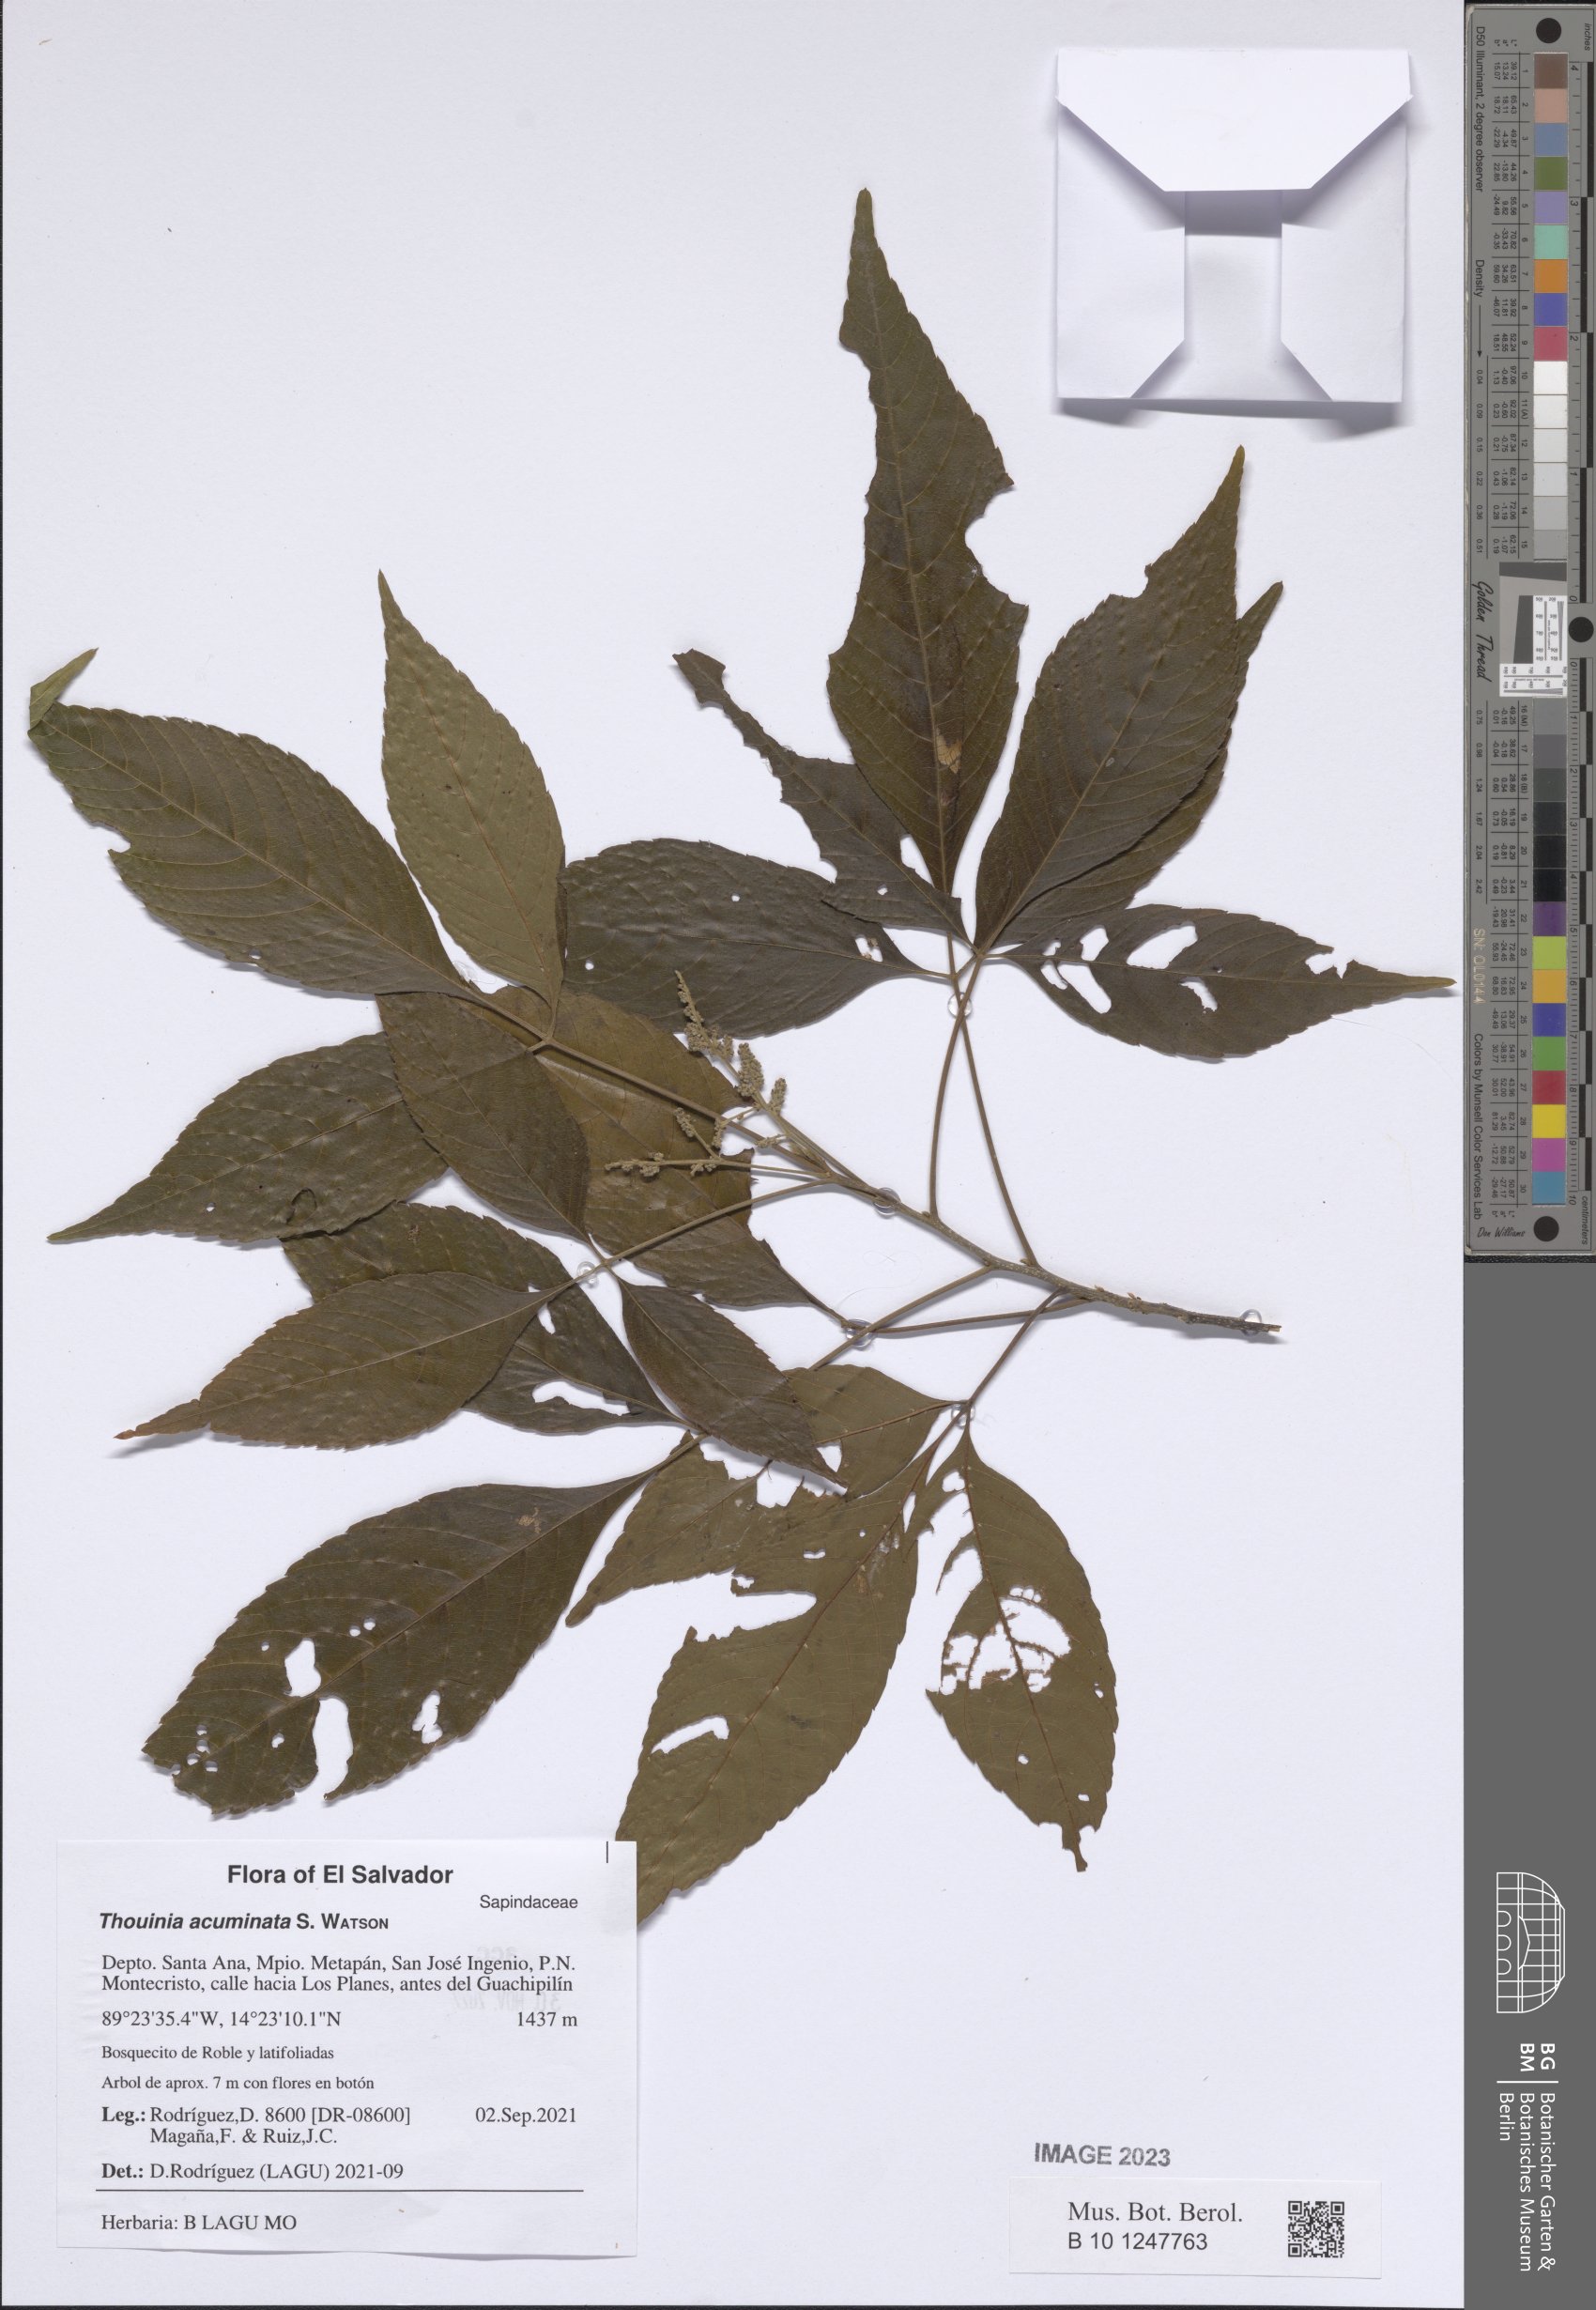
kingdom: Plantae
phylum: Tracheophyta
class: Magnoliopsida
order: Sapindales
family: Sapindaceae
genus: Thouinia
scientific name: Thouinia serrata
